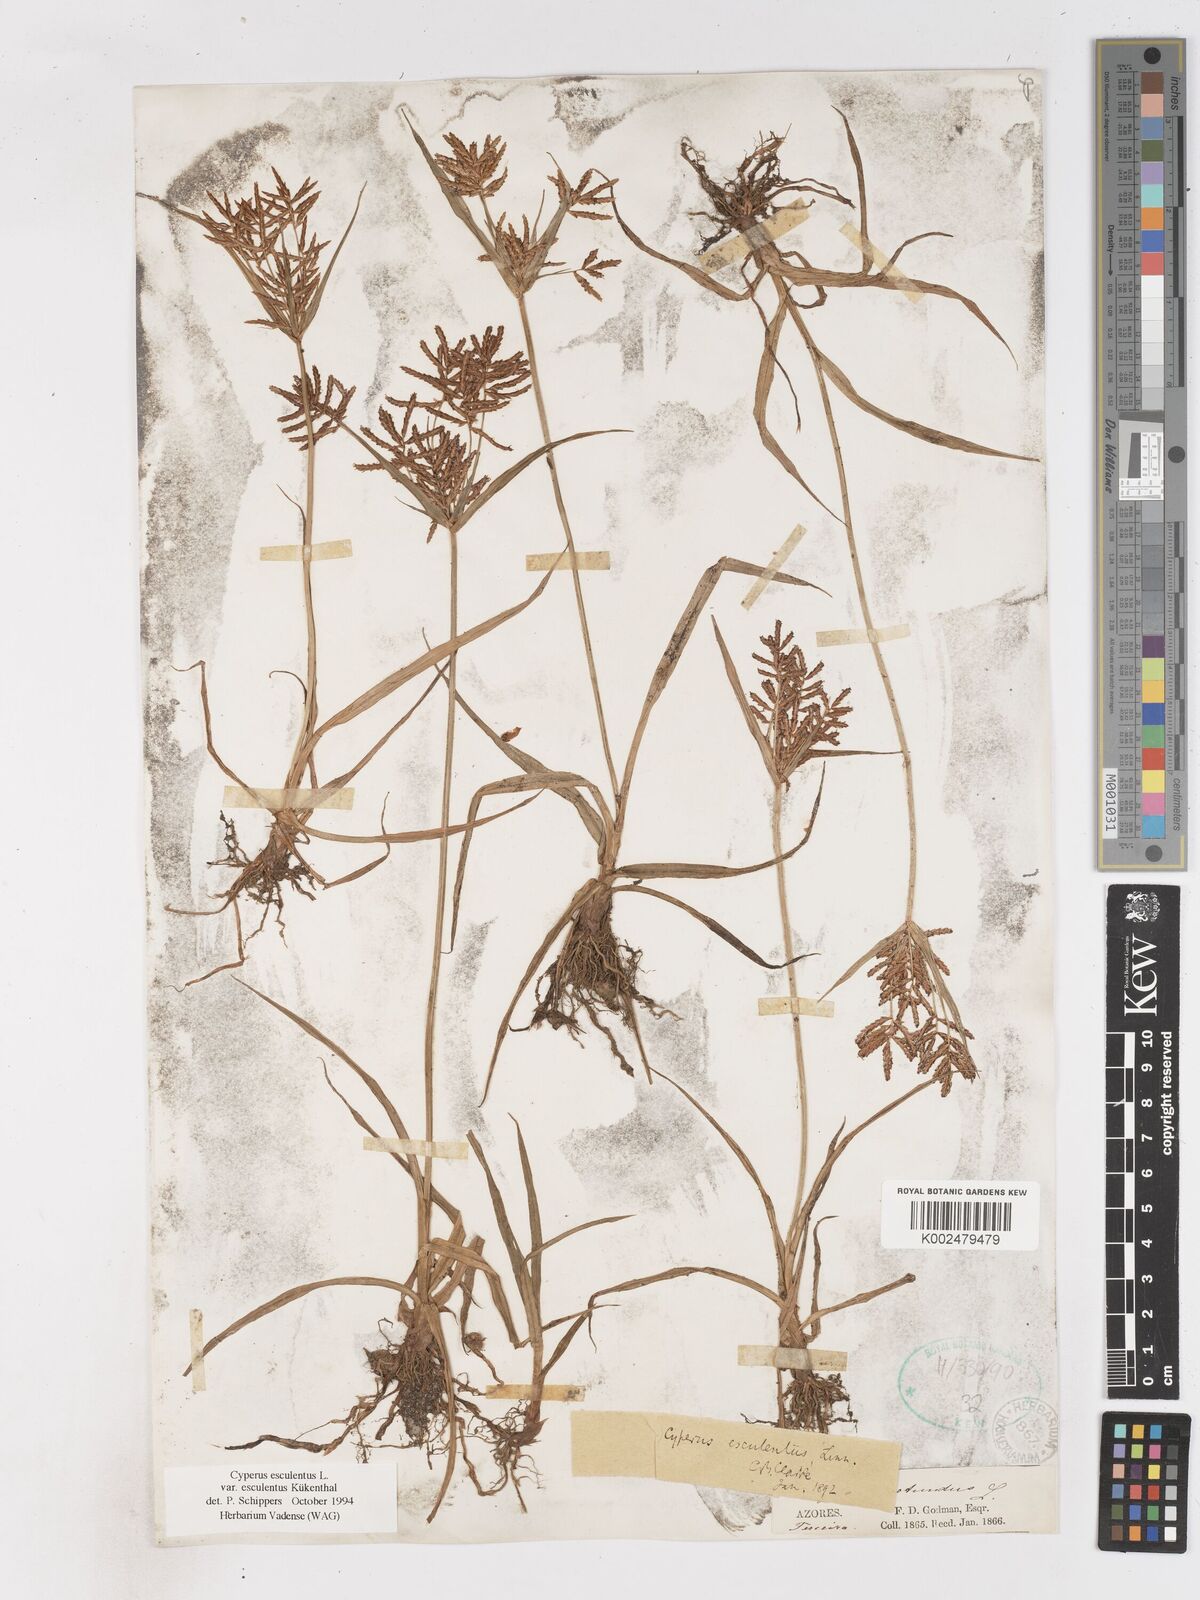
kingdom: Plantae
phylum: Tracheophyta
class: Liliopsida
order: Poales
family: Cyperaceae
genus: Cyperus
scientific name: Cyperus esculentus
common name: Yellow nutsedge
